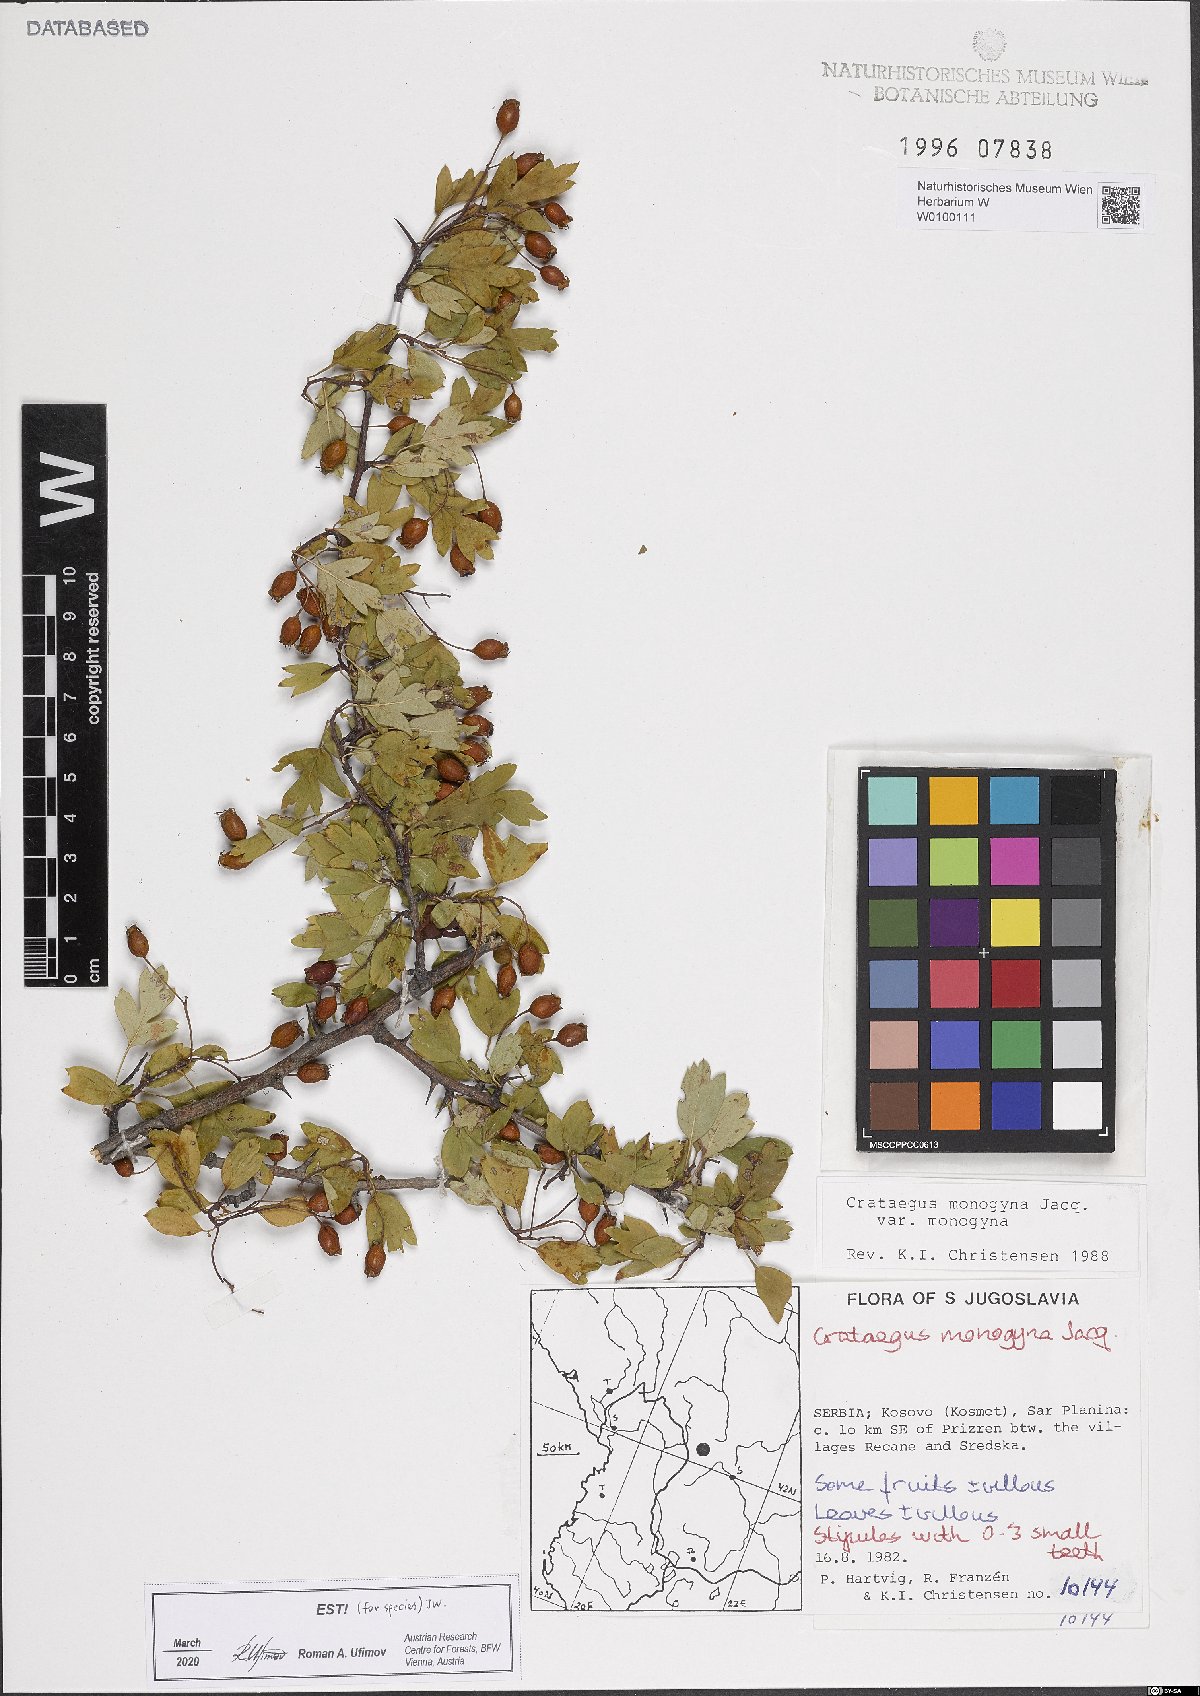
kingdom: Plantae
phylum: Tracheophyta
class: Magnoliopsida
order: Rosales
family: Rosaceae
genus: Crataegus
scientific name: Crataegus monogyna
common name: Hawthorn
